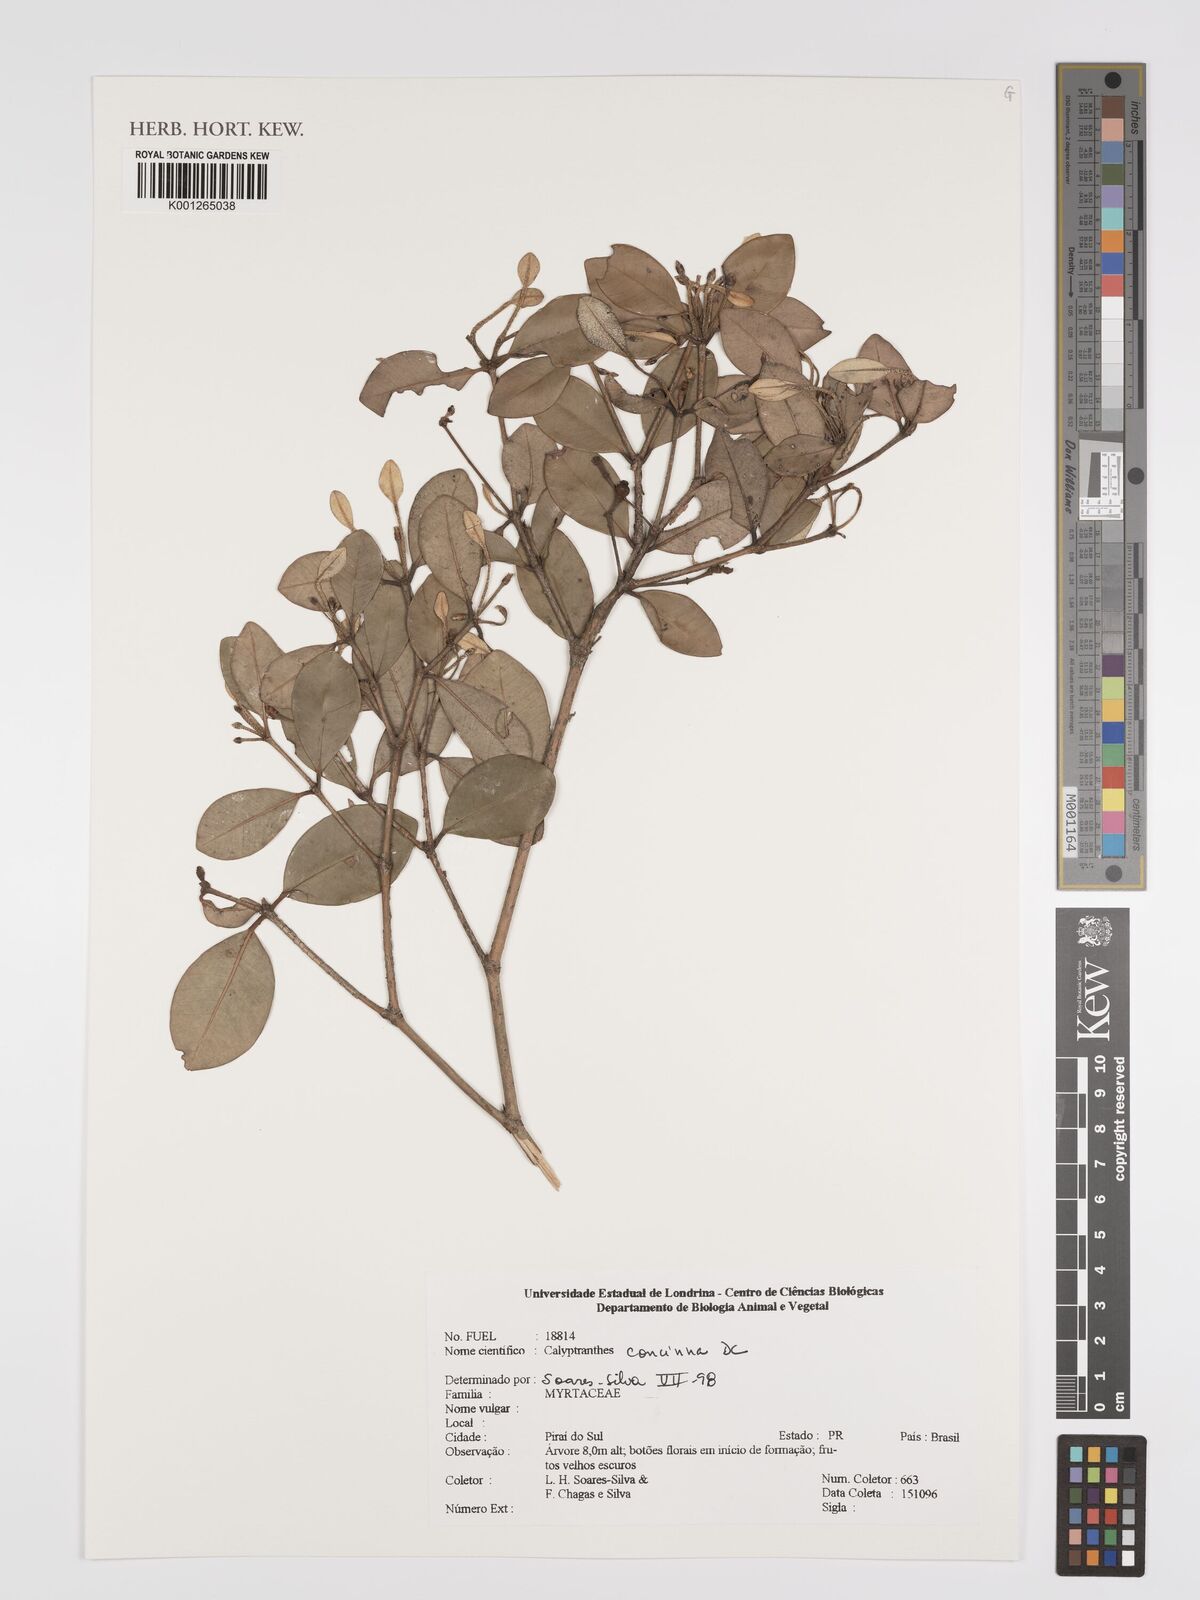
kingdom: Plantae
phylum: Tracheophyta
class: Magnoliopsida
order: Myrtales
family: Myrtaceae
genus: Myrcia
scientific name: Myrcia cruciflora
